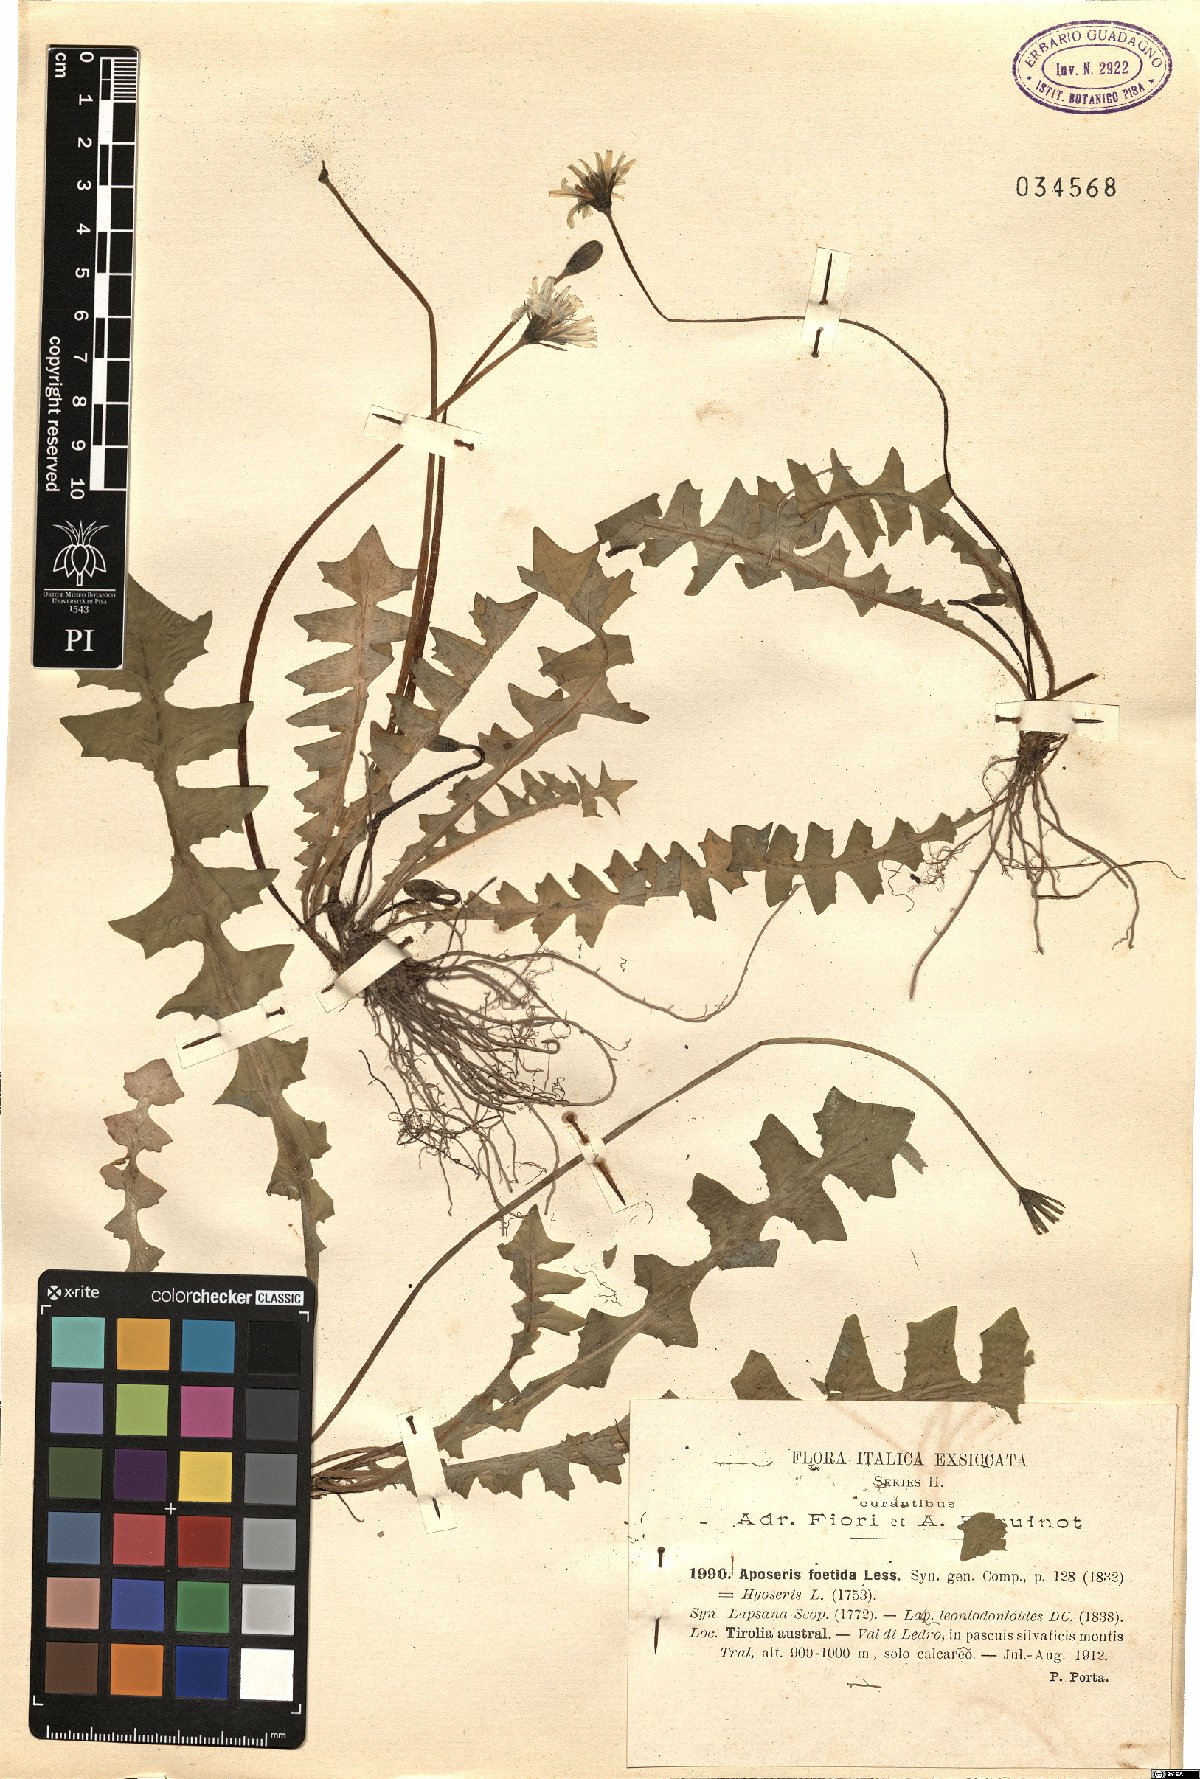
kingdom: Plantae
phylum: Tracheophyta
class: Magnoliopsida
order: Asterales
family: Asteraceae
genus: Aposeris
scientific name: Aposeris foetida
